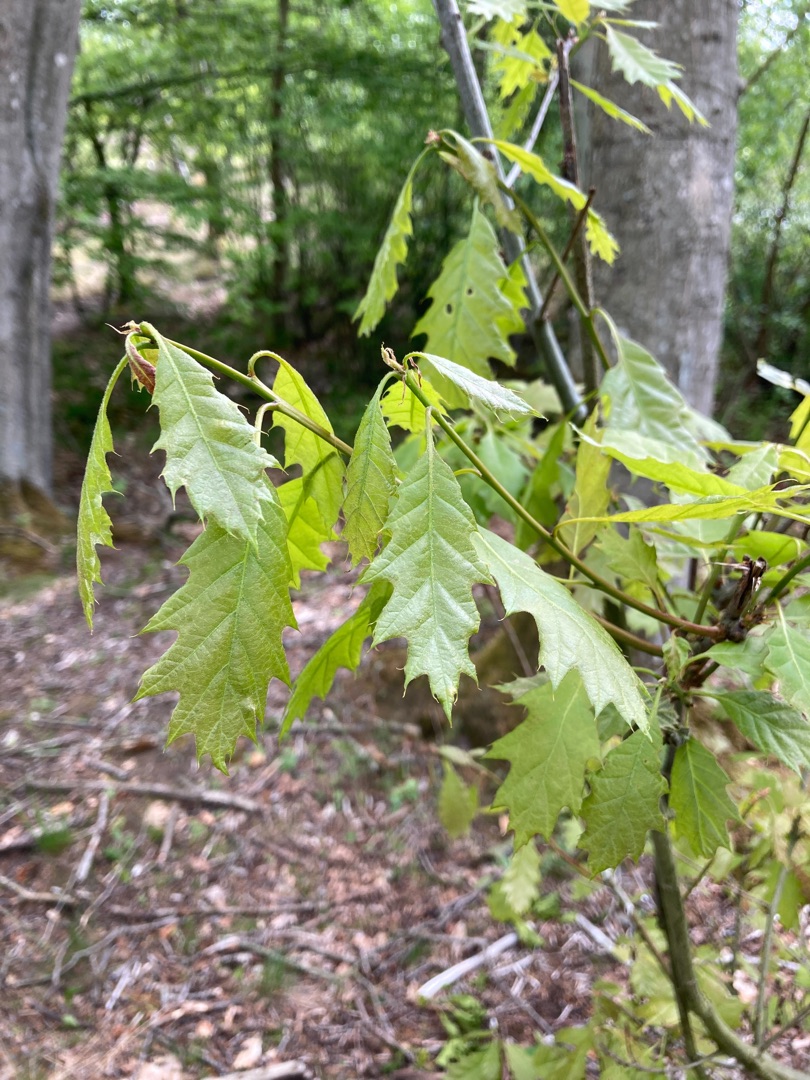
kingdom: Plantae
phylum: Tracheophyta
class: Magnoliopsida
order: Fagales
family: Fagaceae
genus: Quercus
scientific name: Quercus rubra
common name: Rød-eg
